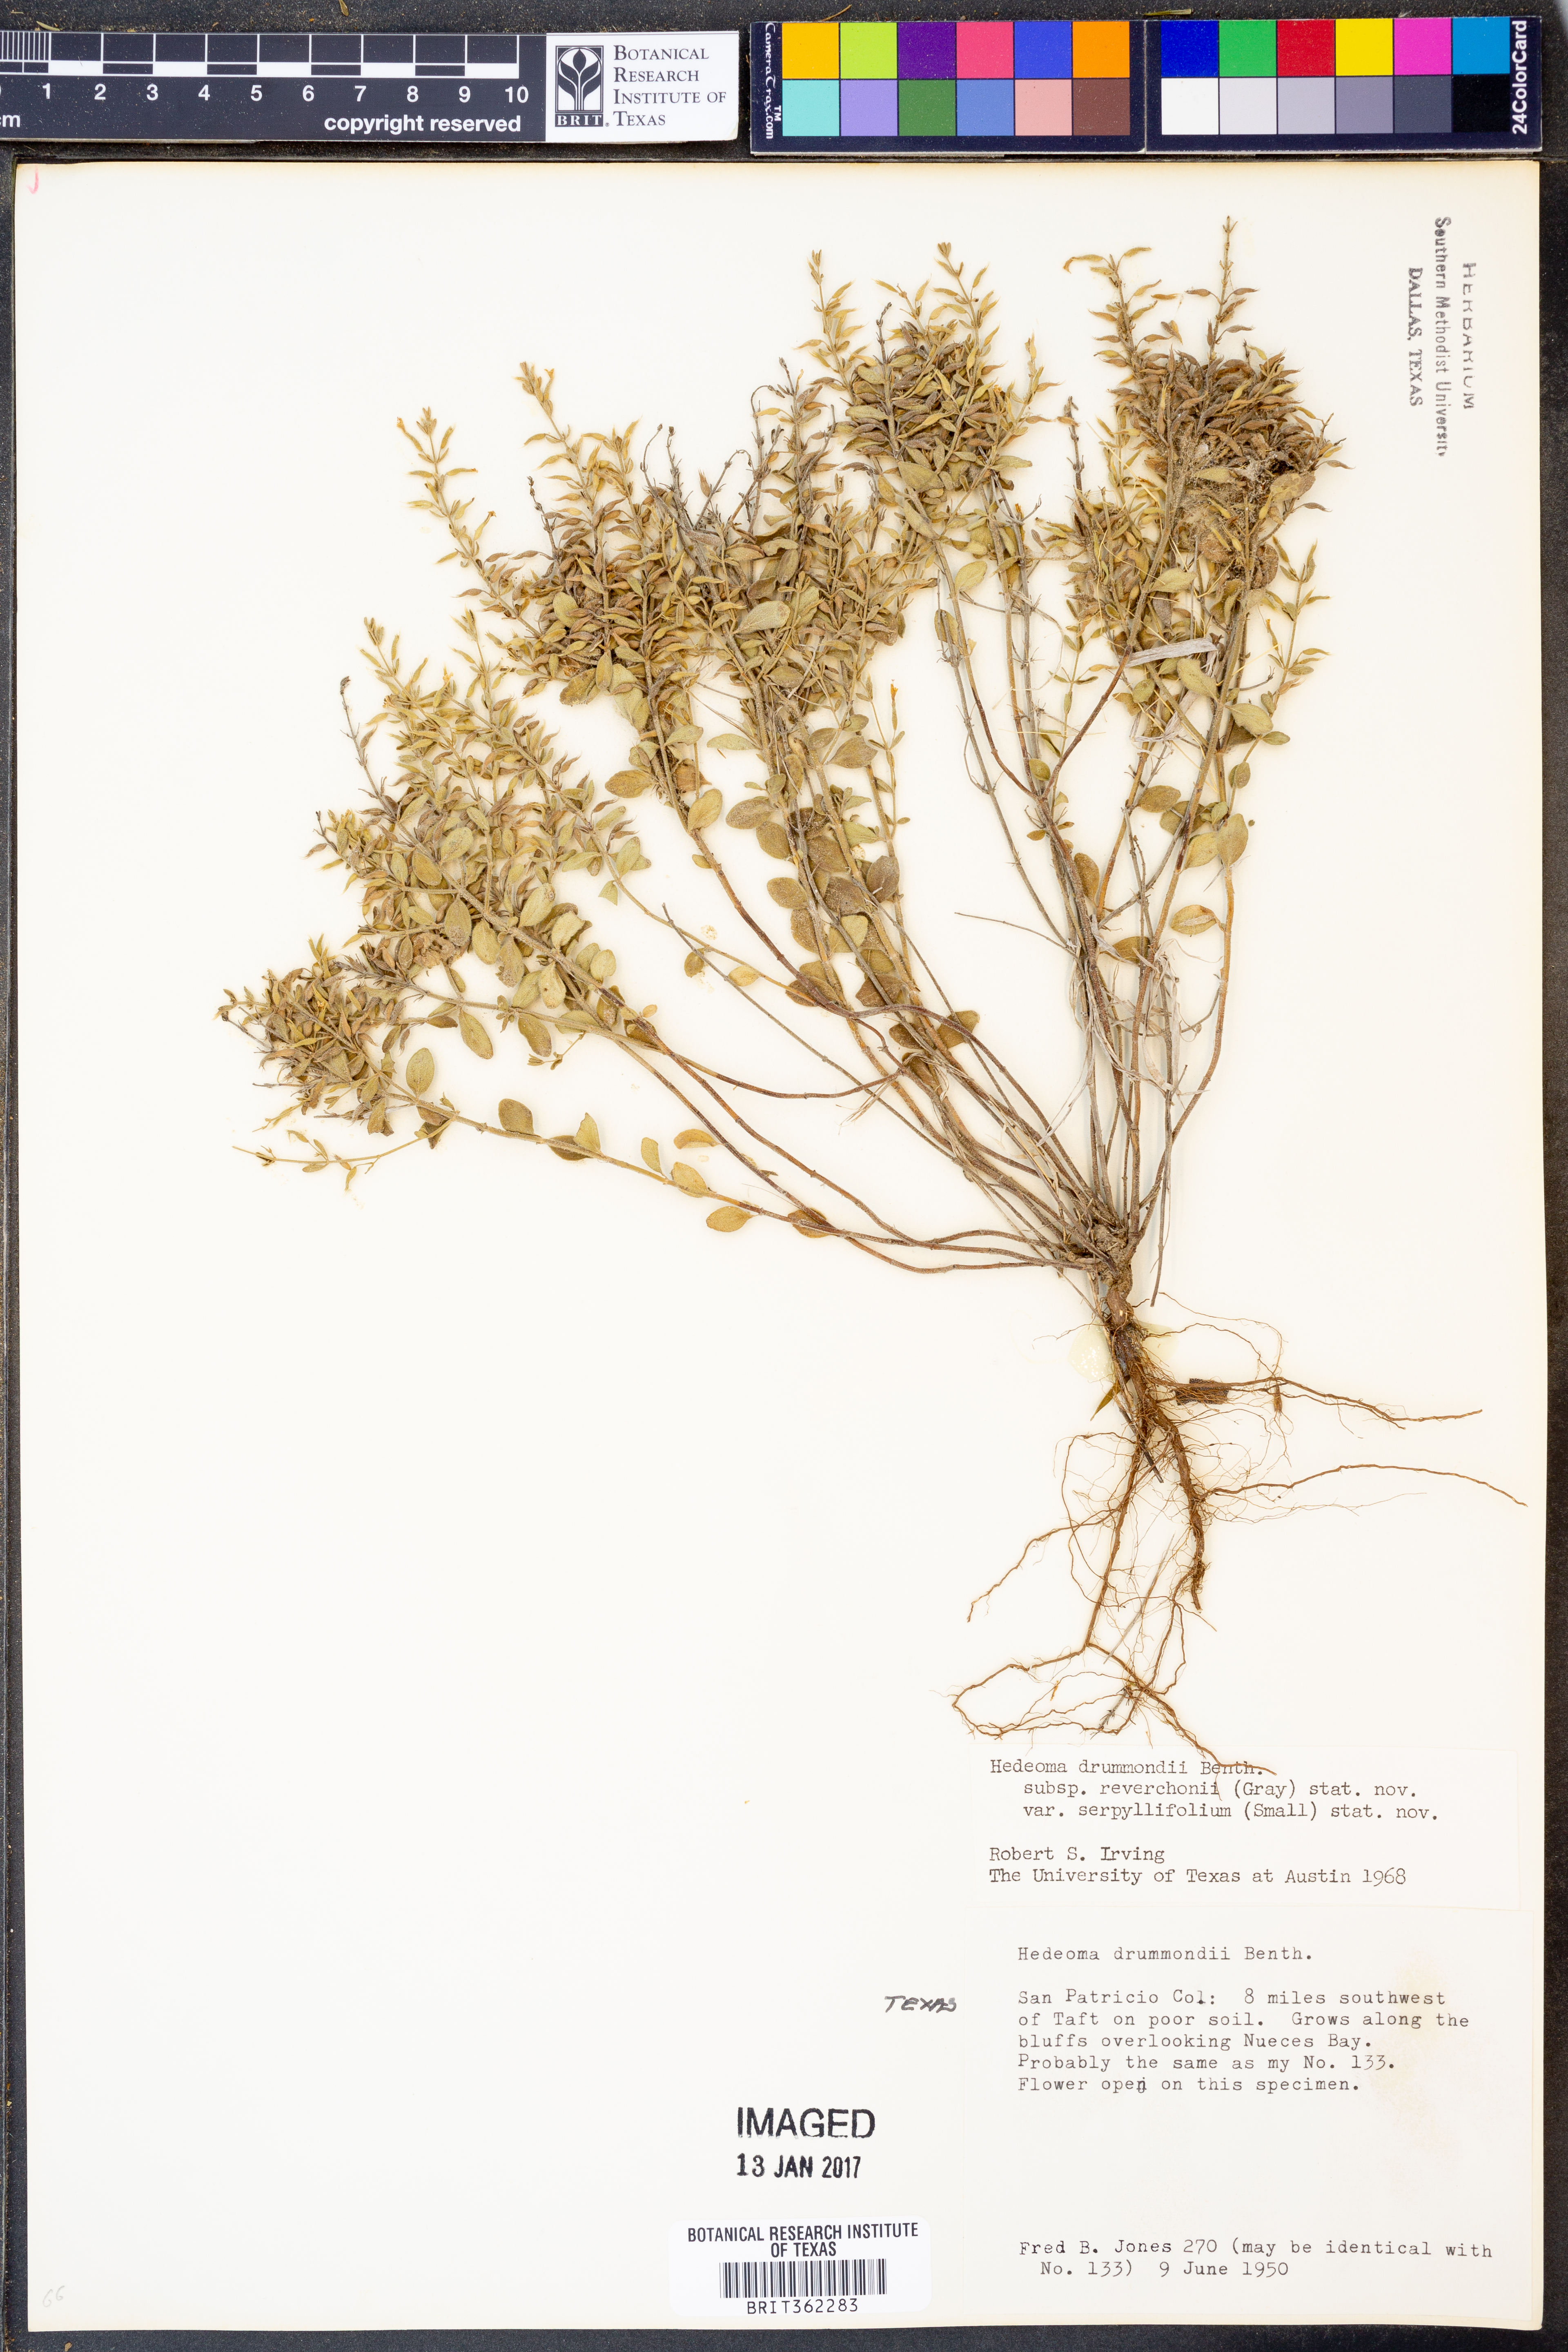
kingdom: Plantae
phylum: Tracheophyta
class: Magnoliopsida
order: Lamiales
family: Lamiaceae
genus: Hedeoma
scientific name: Hedeoma reverchonii
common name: Reverchon's false penny-royal
